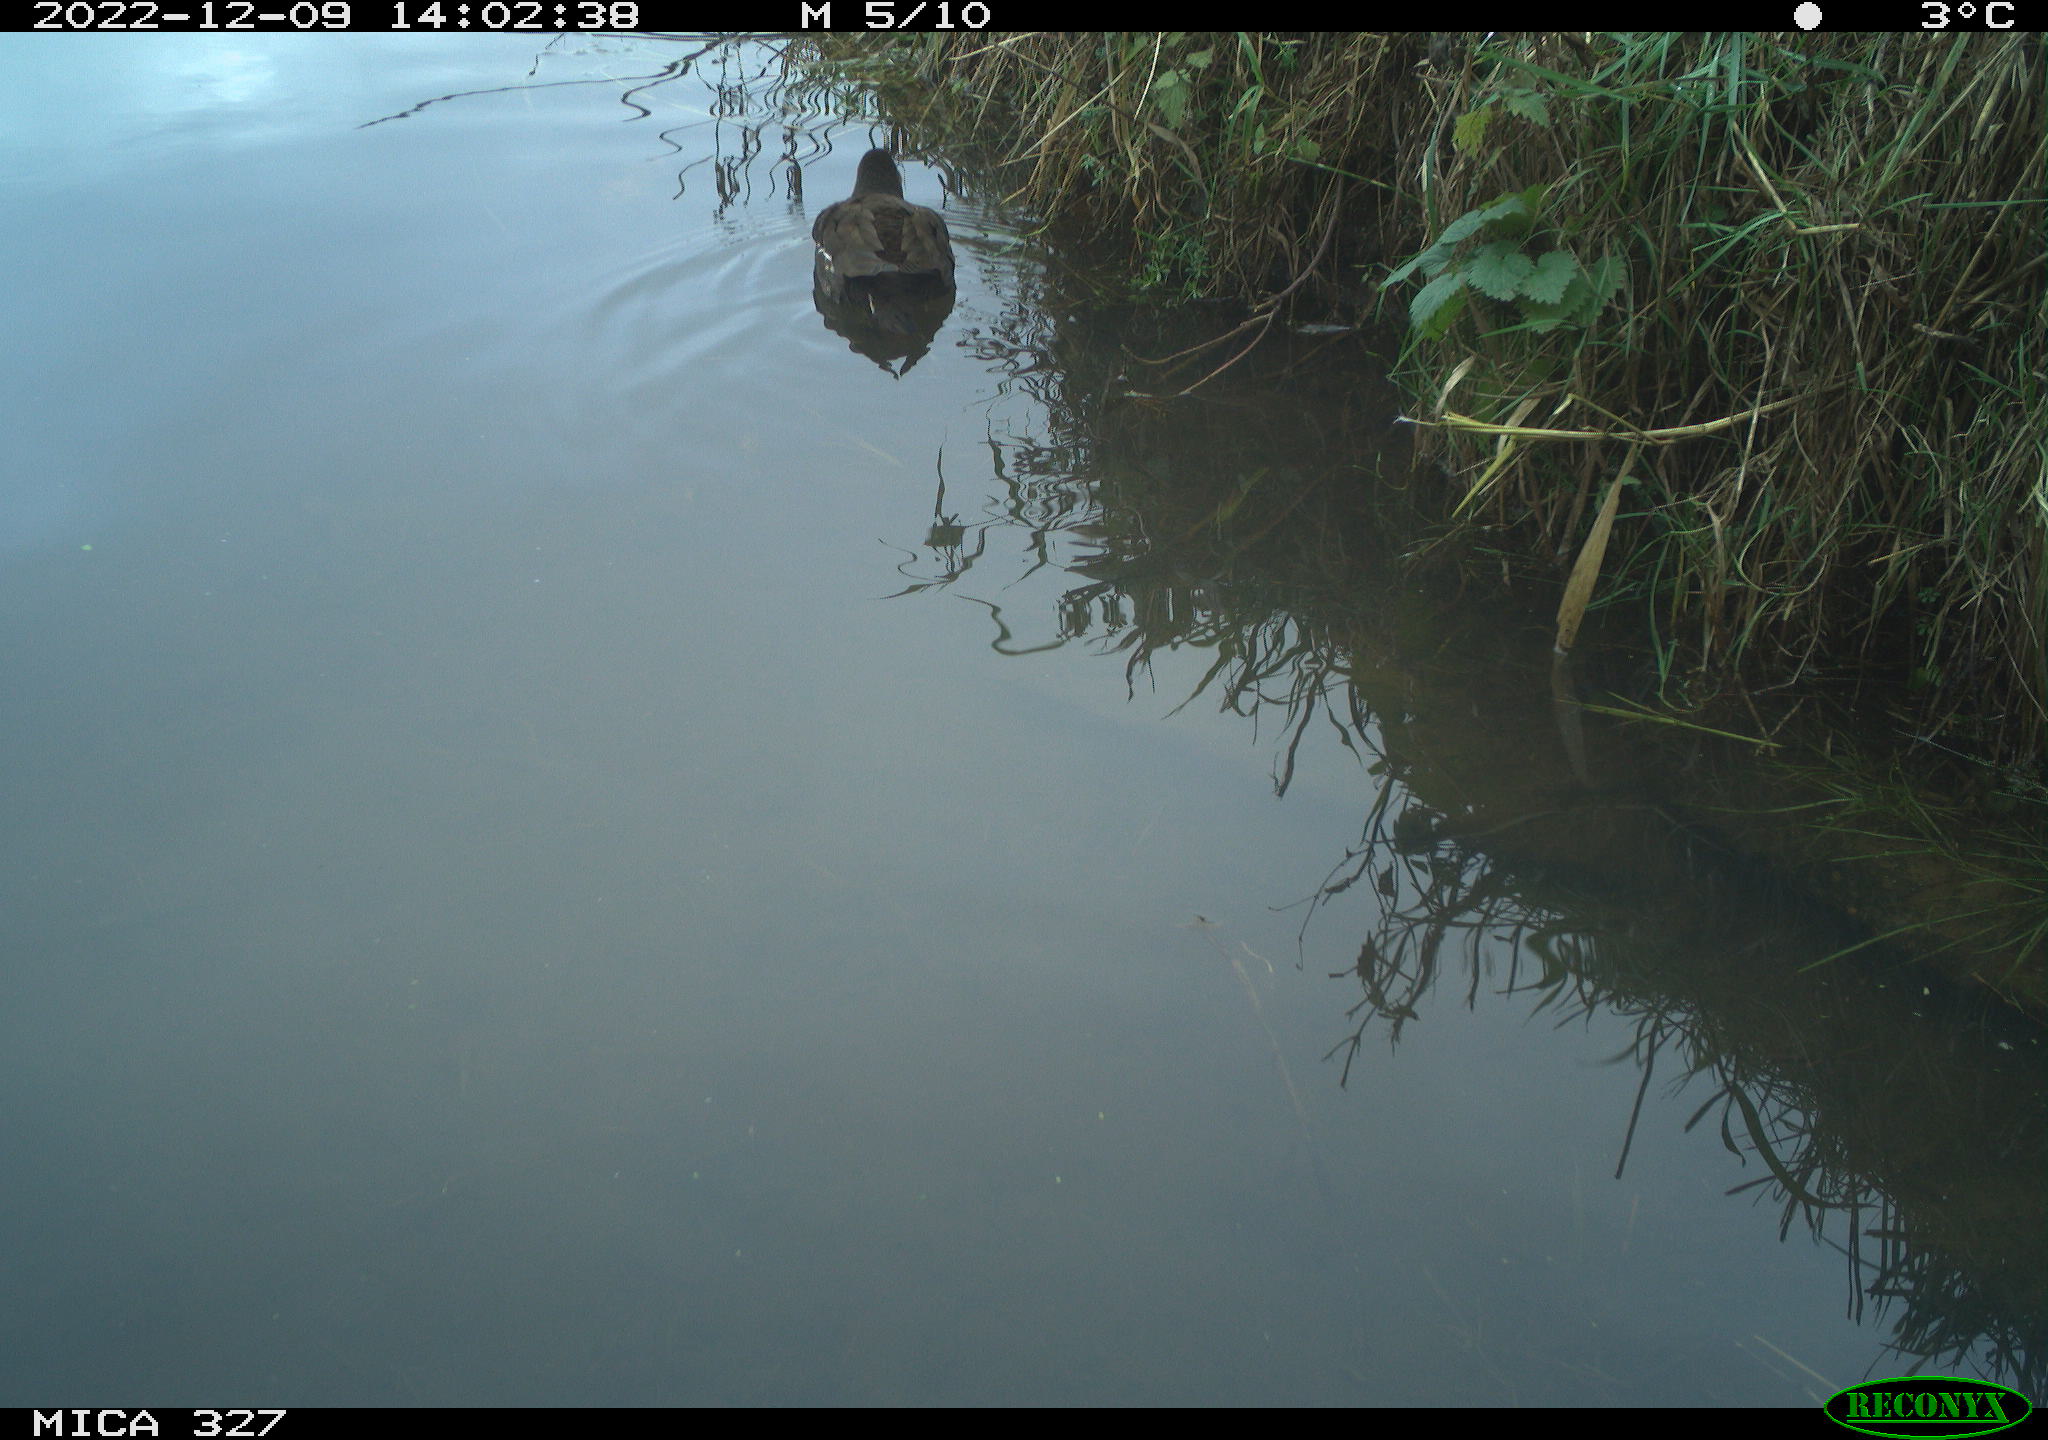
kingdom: Animalia
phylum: Chordata
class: Aves
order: Gruiformes
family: Rallidae
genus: Gallinula
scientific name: Gallinula chloropus
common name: Common moorhen
